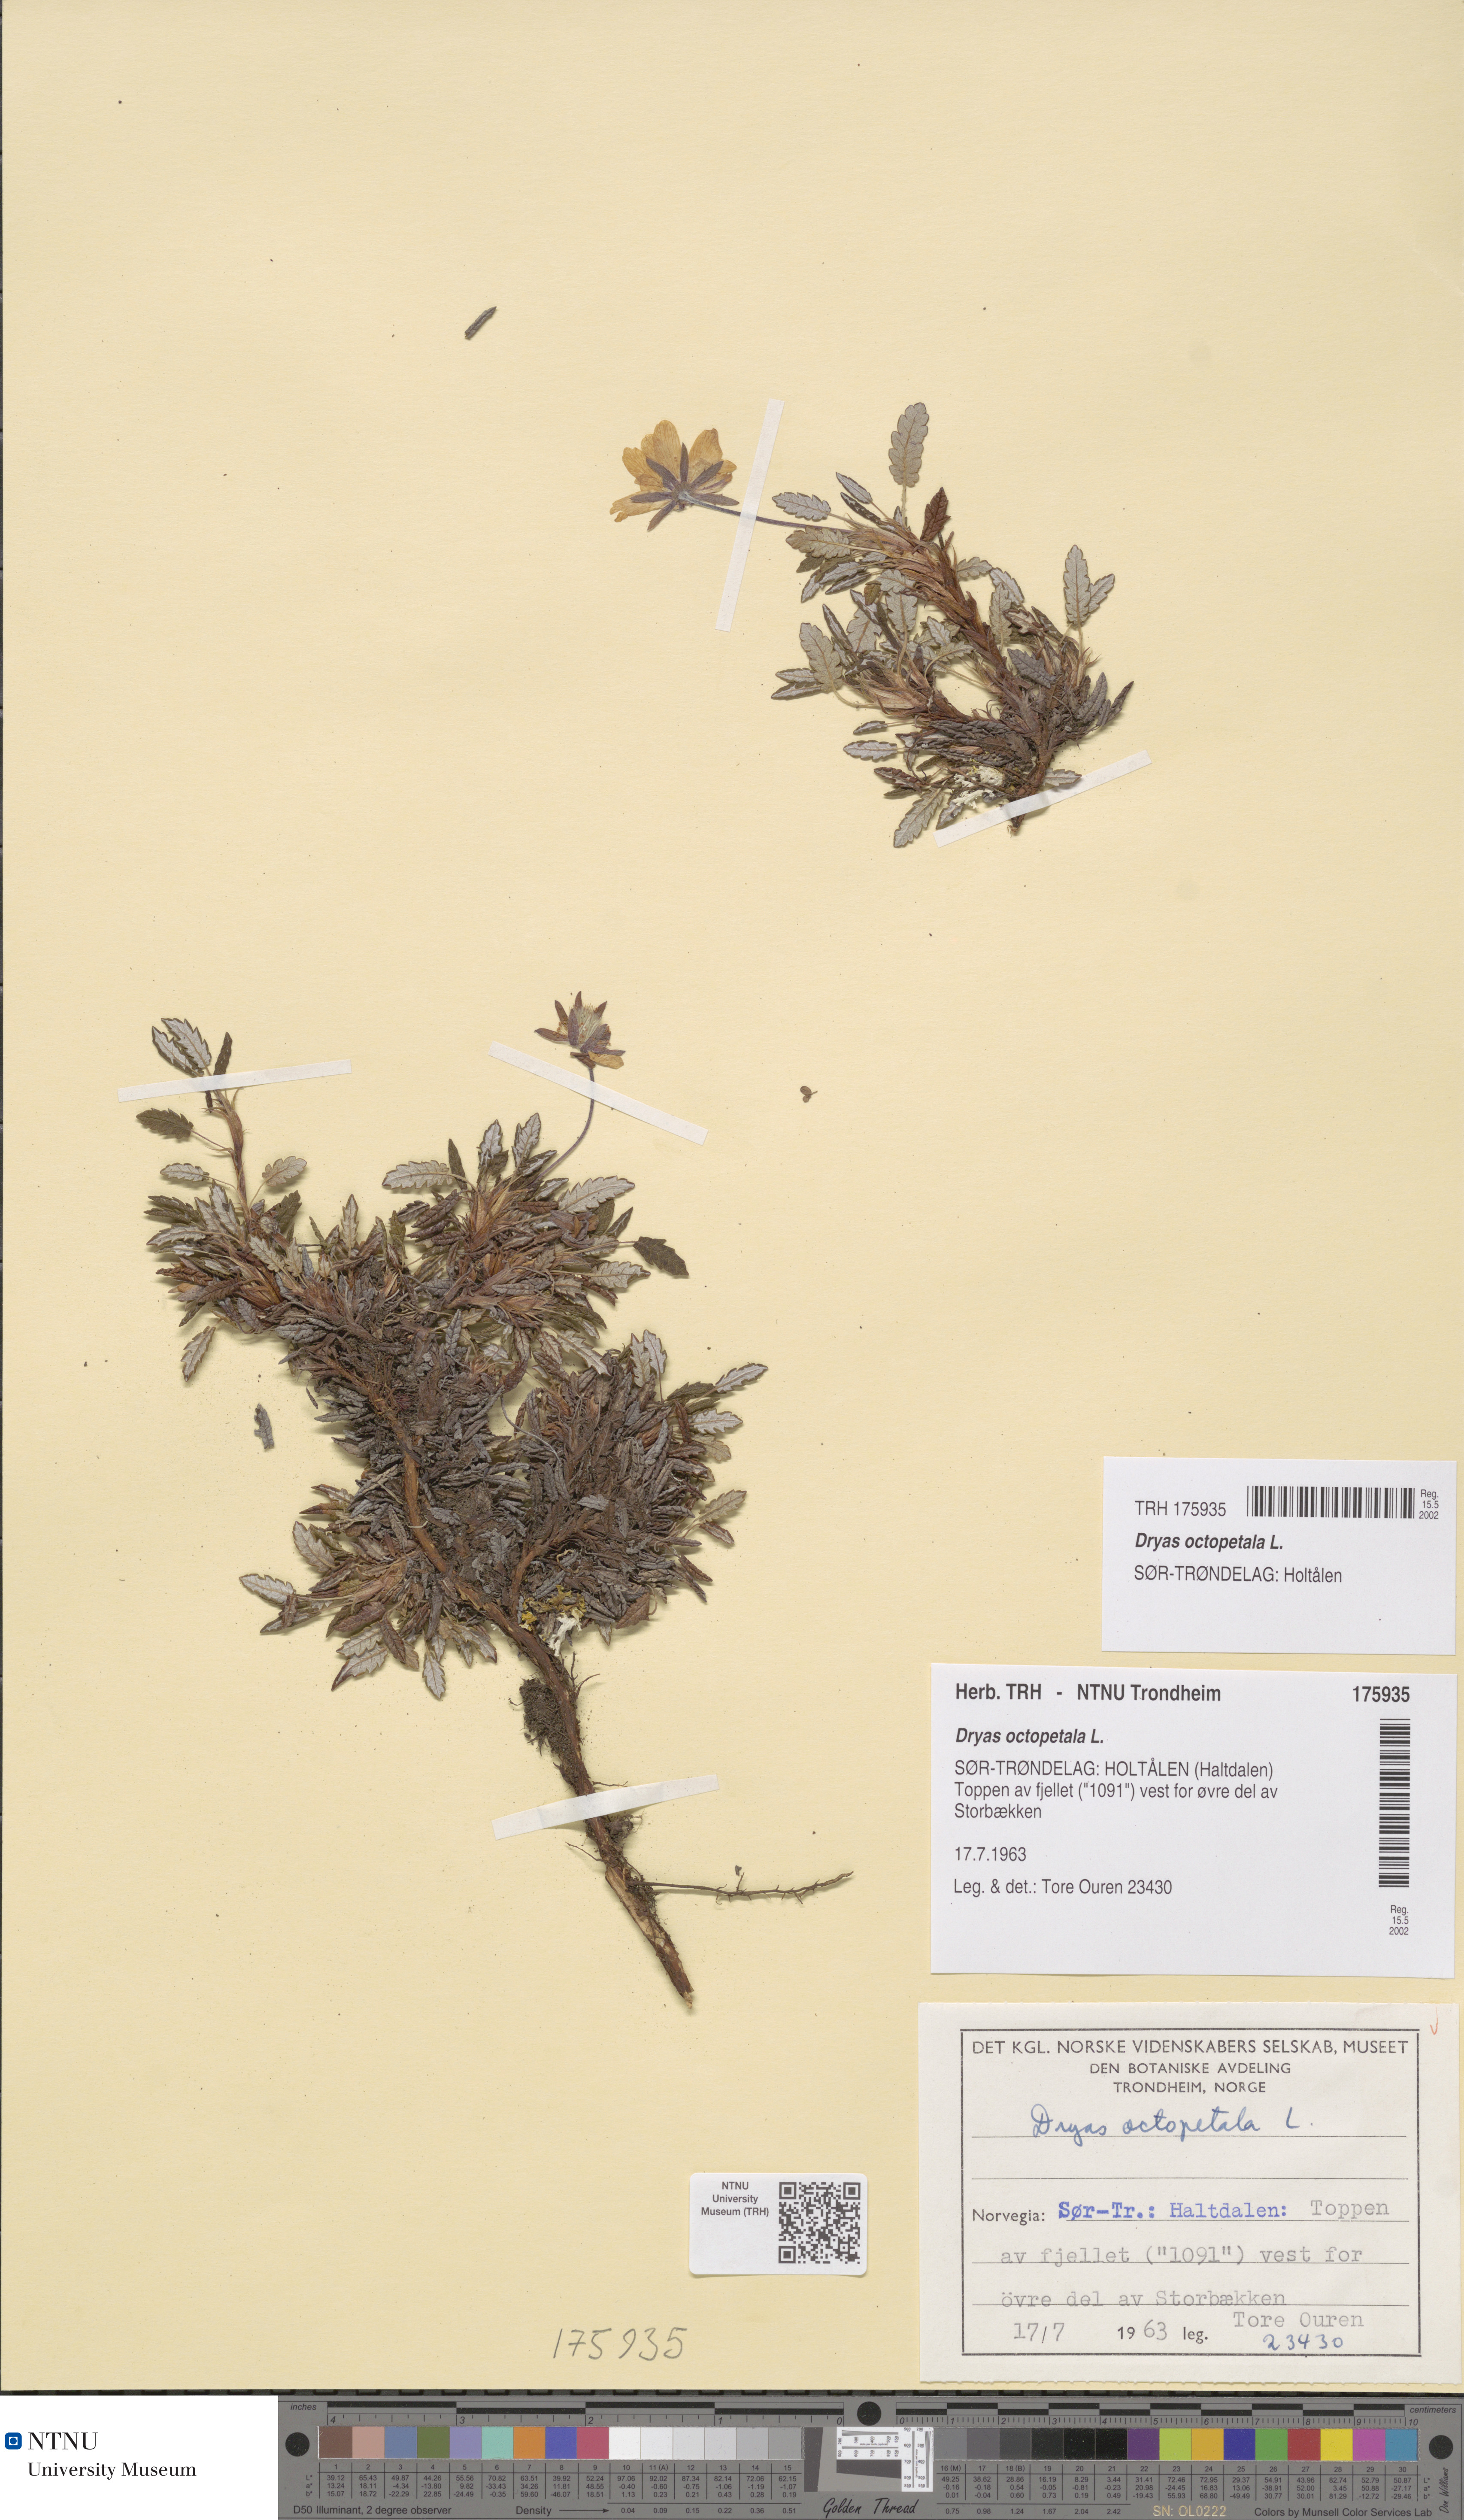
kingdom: Plantae
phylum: Tracheophyta
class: Magnoliopsida
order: Rosales
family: Rosaceae
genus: Dryas
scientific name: Dryas octopetala
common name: Eight-petal mountain-avens
